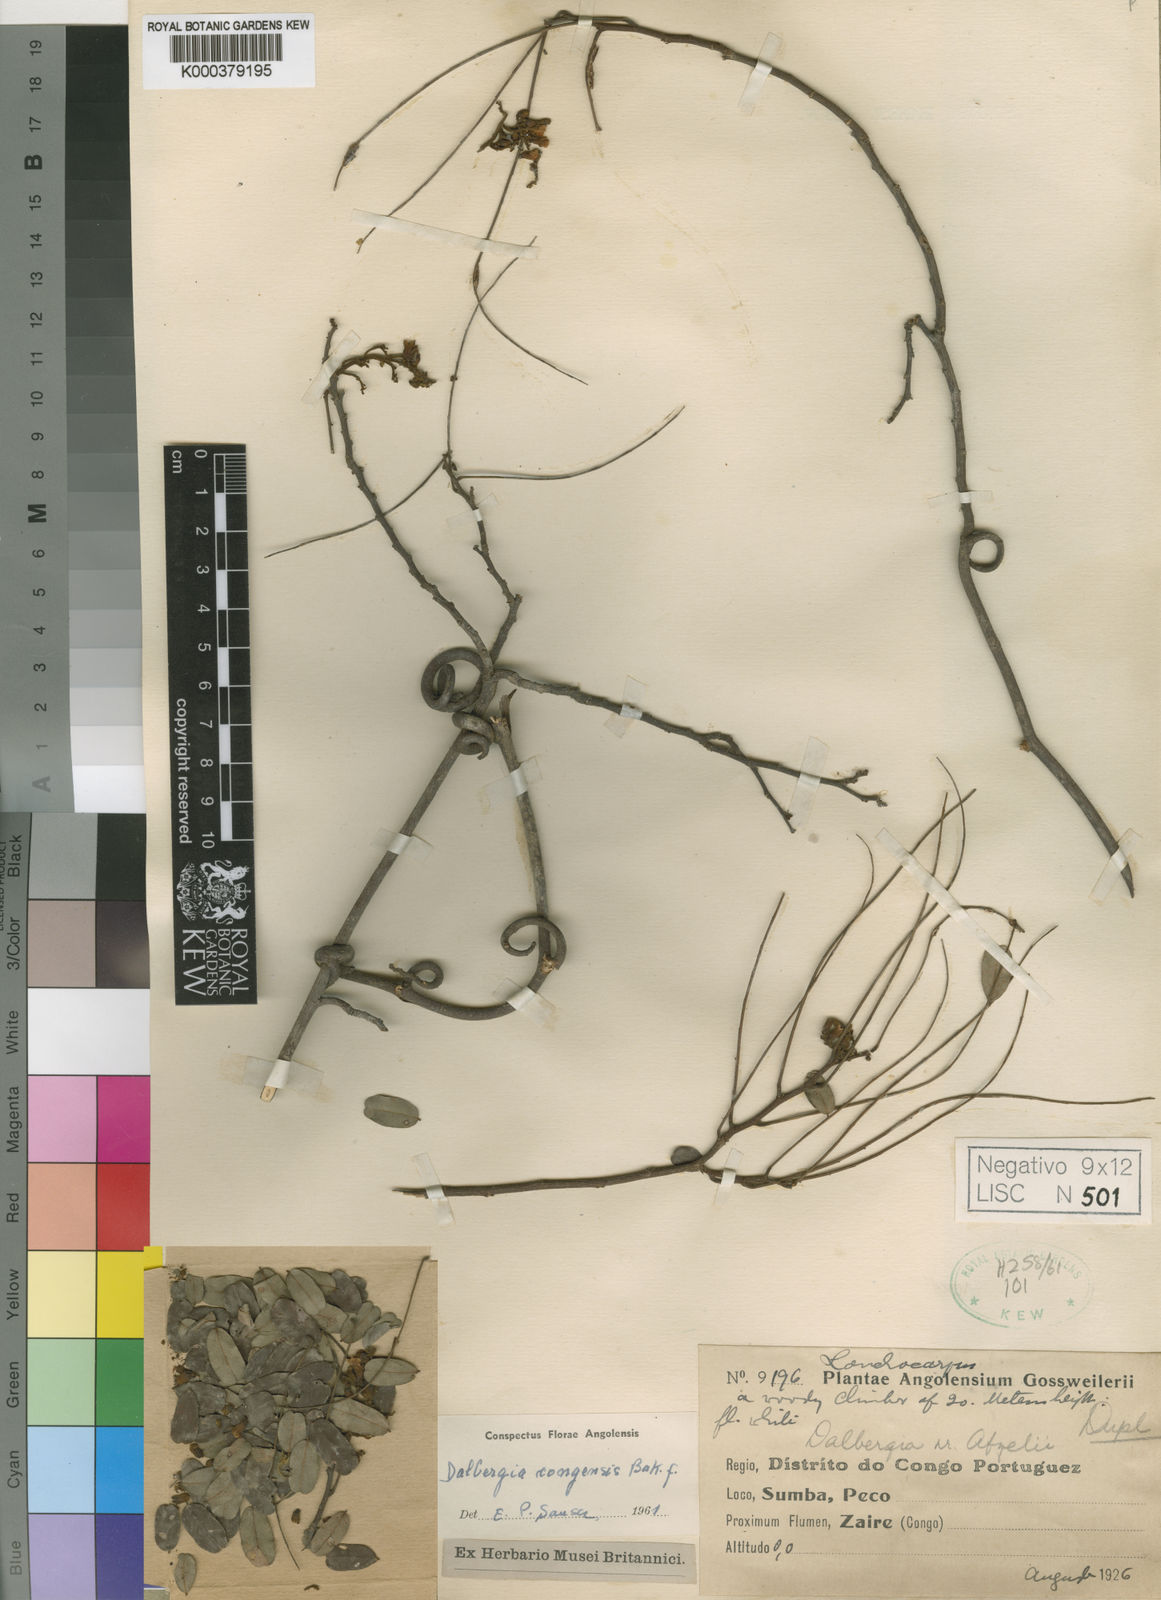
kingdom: Plantae
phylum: Tracheophyta
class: Magnoliopsida
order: Fabales
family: Fabaceae
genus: Dalbergia
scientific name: Dalbergia congensis
